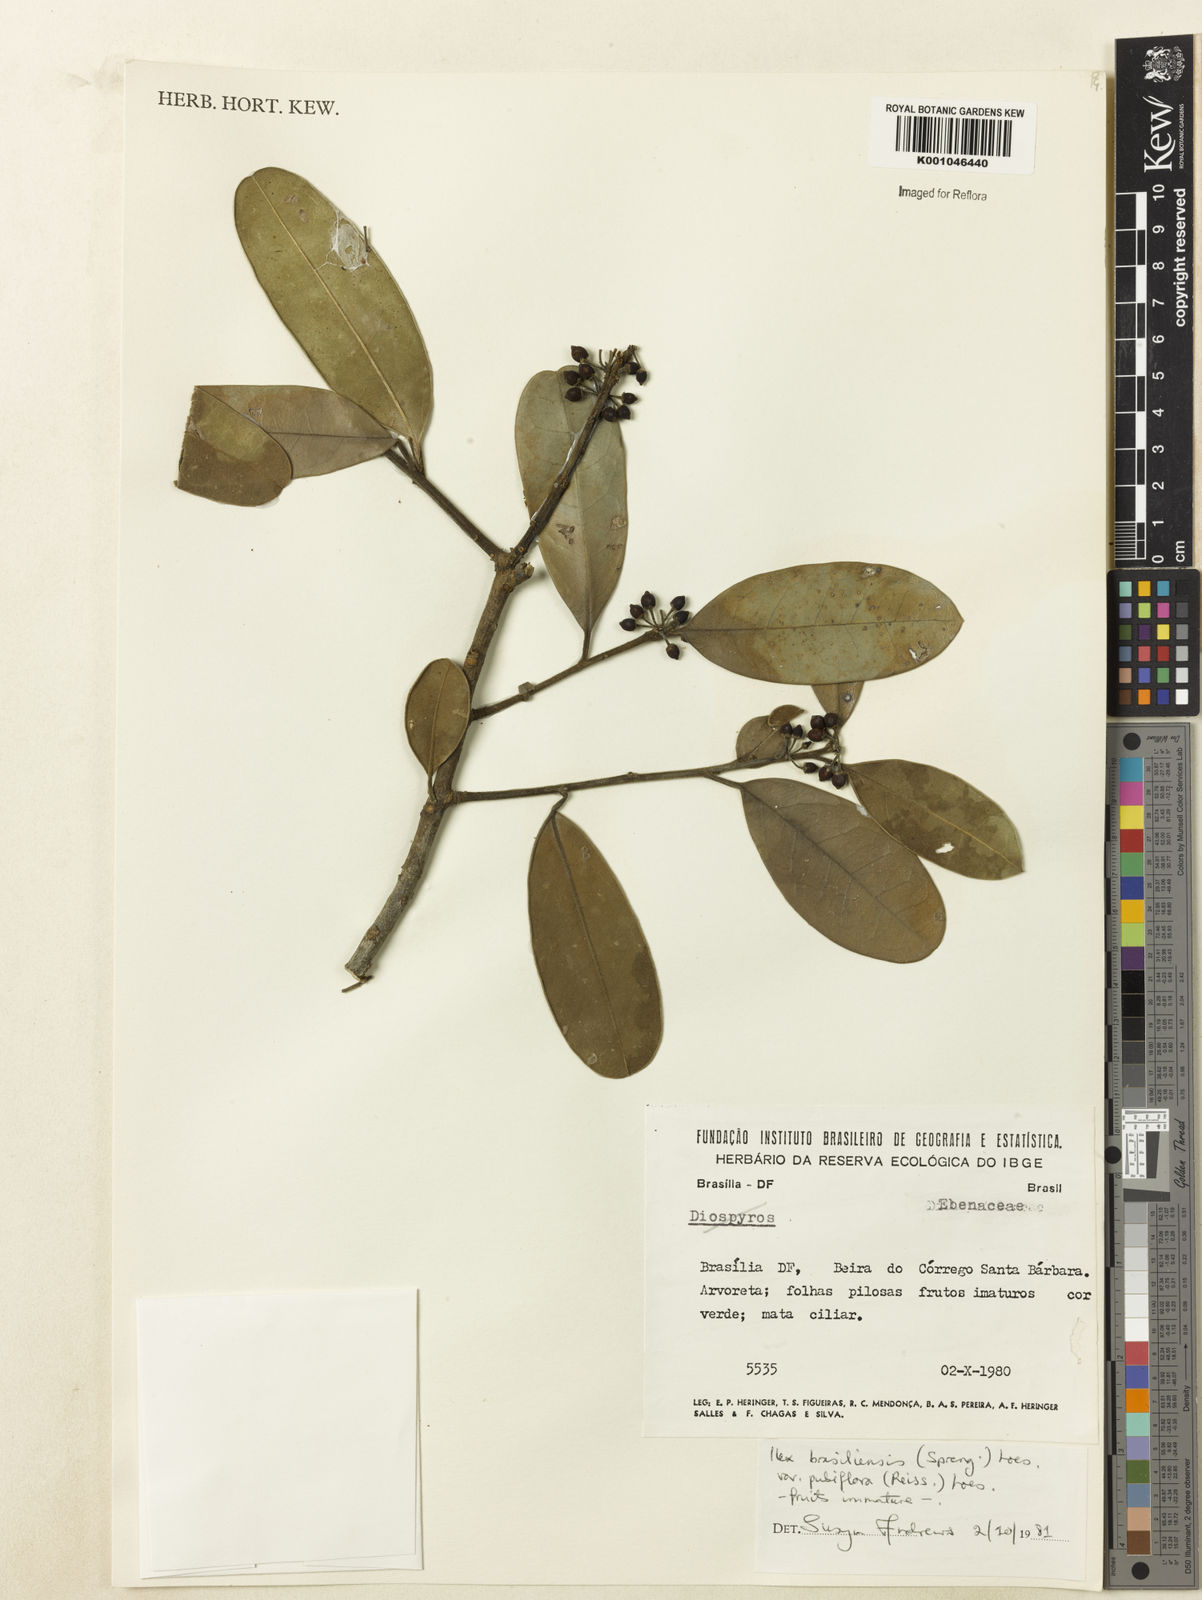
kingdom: Plantae
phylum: Tracheophyta
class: Magnoliopsida
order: Aquifoliales
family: Aquifoliaceae
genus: Ilex
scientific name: Ilex brasiliensis
